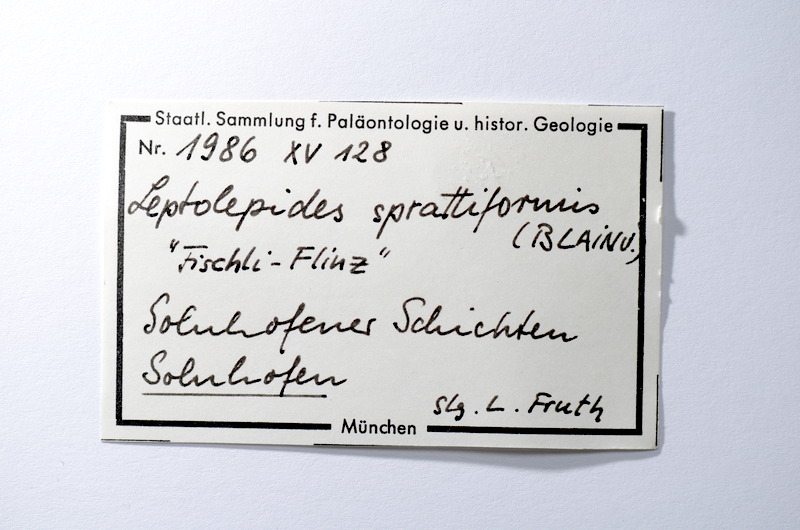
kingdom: Animalia
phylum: Chordata
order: Salmoniformes
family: Orthogonikleithridae
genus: Leptolepides
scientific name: Leptolepides
